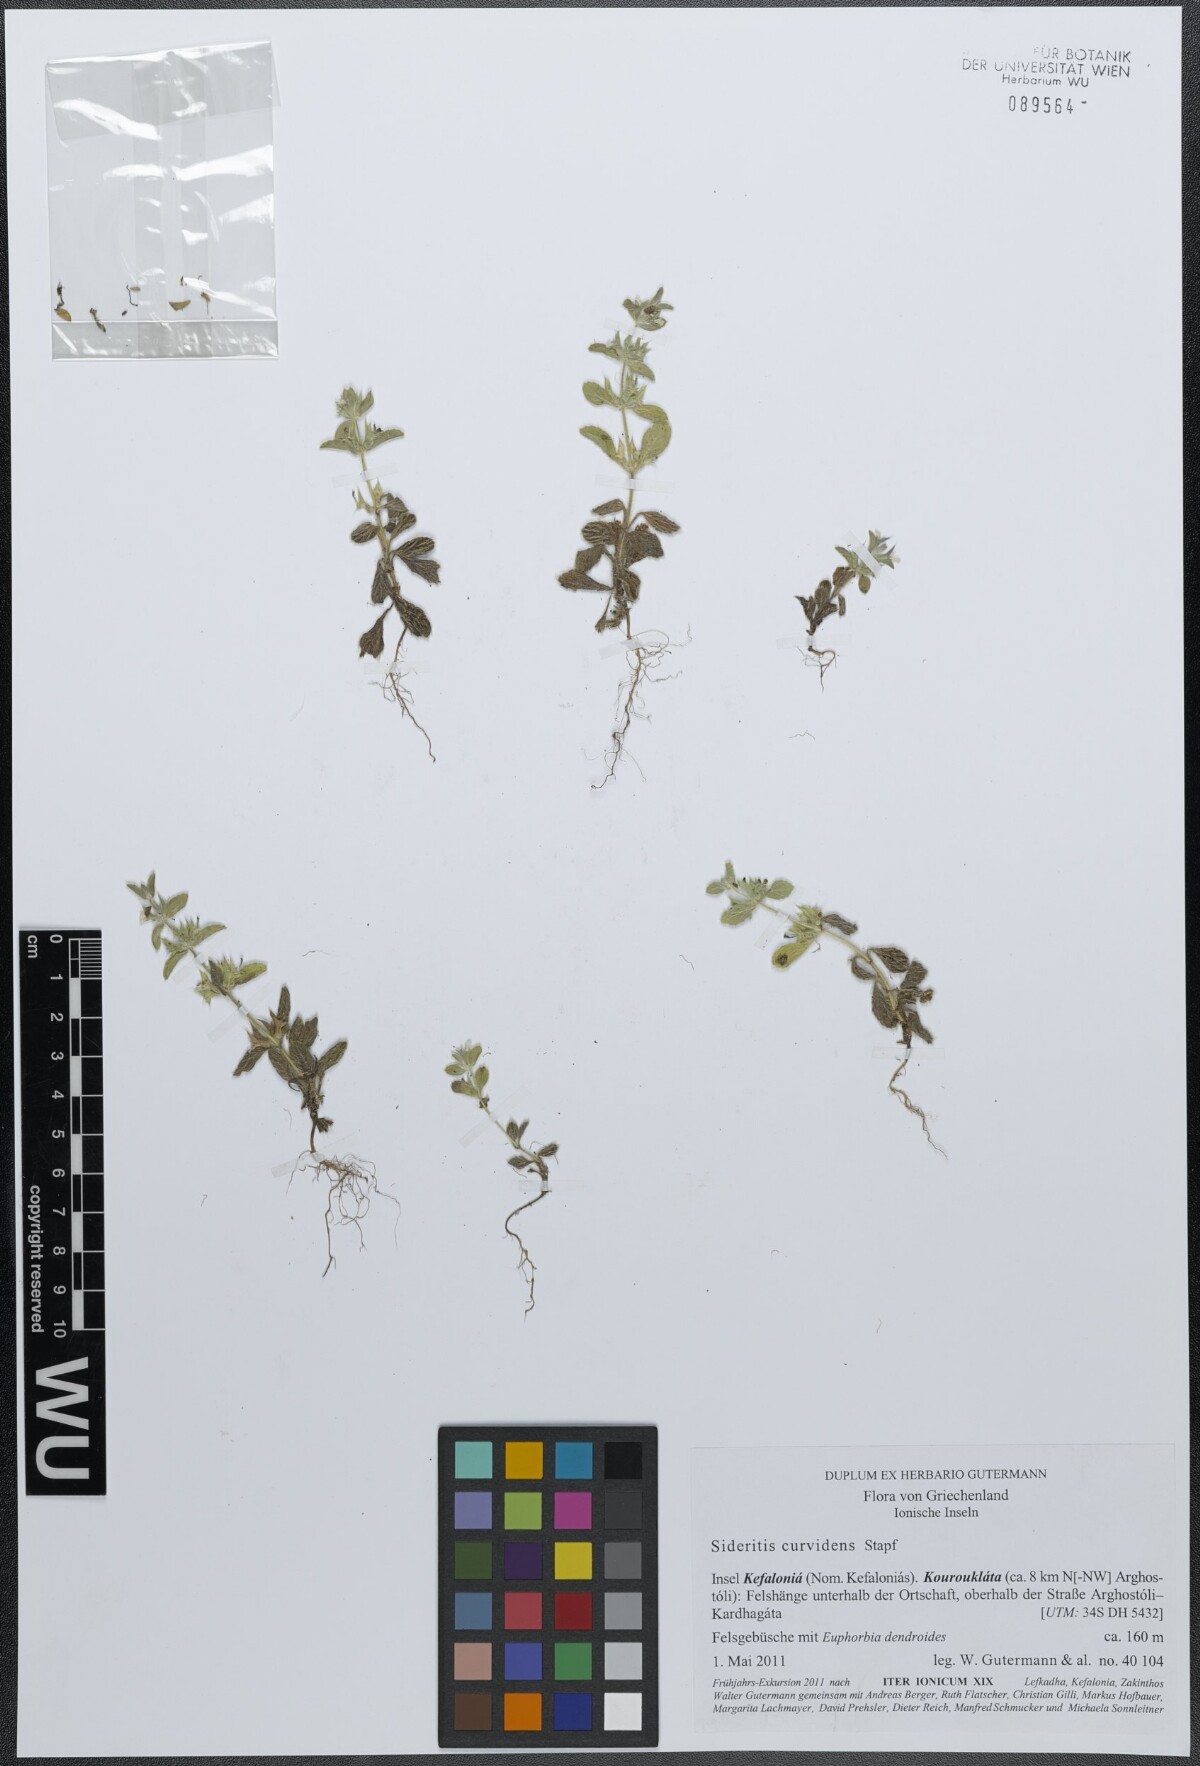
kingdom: Plantae
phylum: Tracheophyta
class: Magnoliopsida
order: Lamiales
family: Lamiaceae
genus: Sideritis
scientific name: Sideritis romana
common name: Simplebeak ironwort
